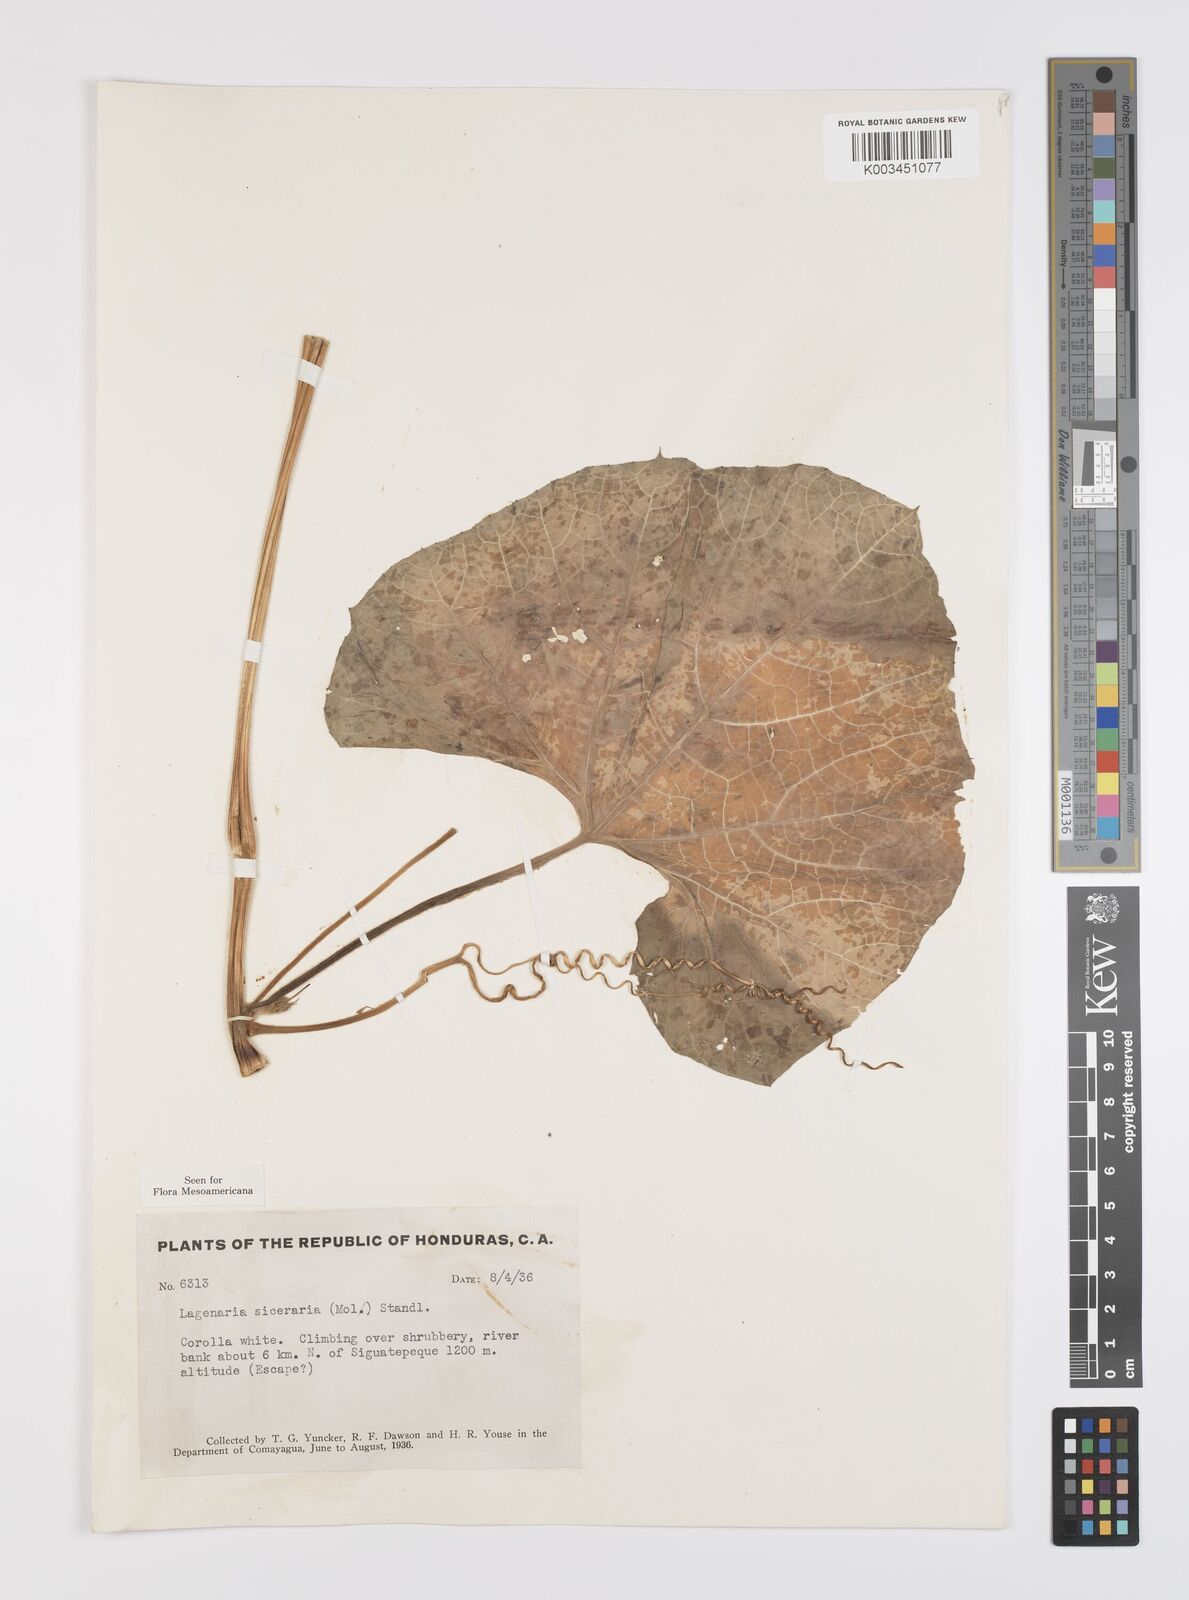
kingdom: Plantae
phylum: Tracheophyta
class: Magnoliopsida
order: Cucurbitales
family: Cucurbitaceae
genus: Lagenaria
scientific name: Lagenaria siceraria
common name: Bottle gourd
